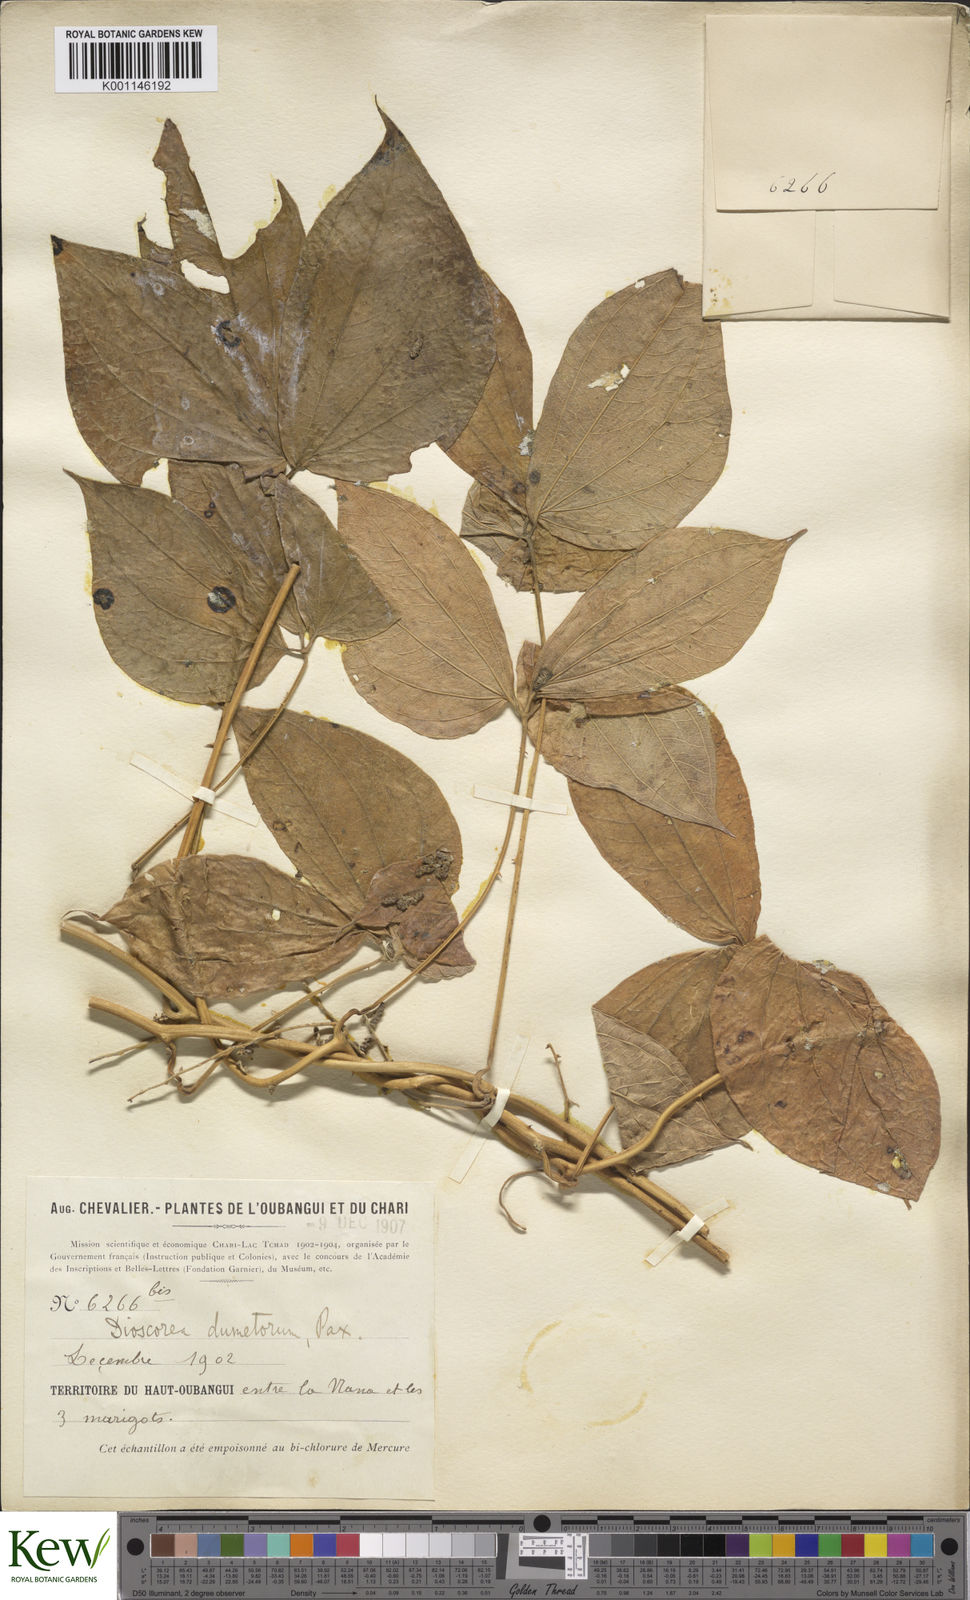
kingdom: Plantae
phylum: Tracheophyta
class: Liliopsida
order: Dioscoreales
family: Dioscoreaceae
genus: Dioscorea
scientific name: Dioscorea dumetorum
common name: African bitter yam
